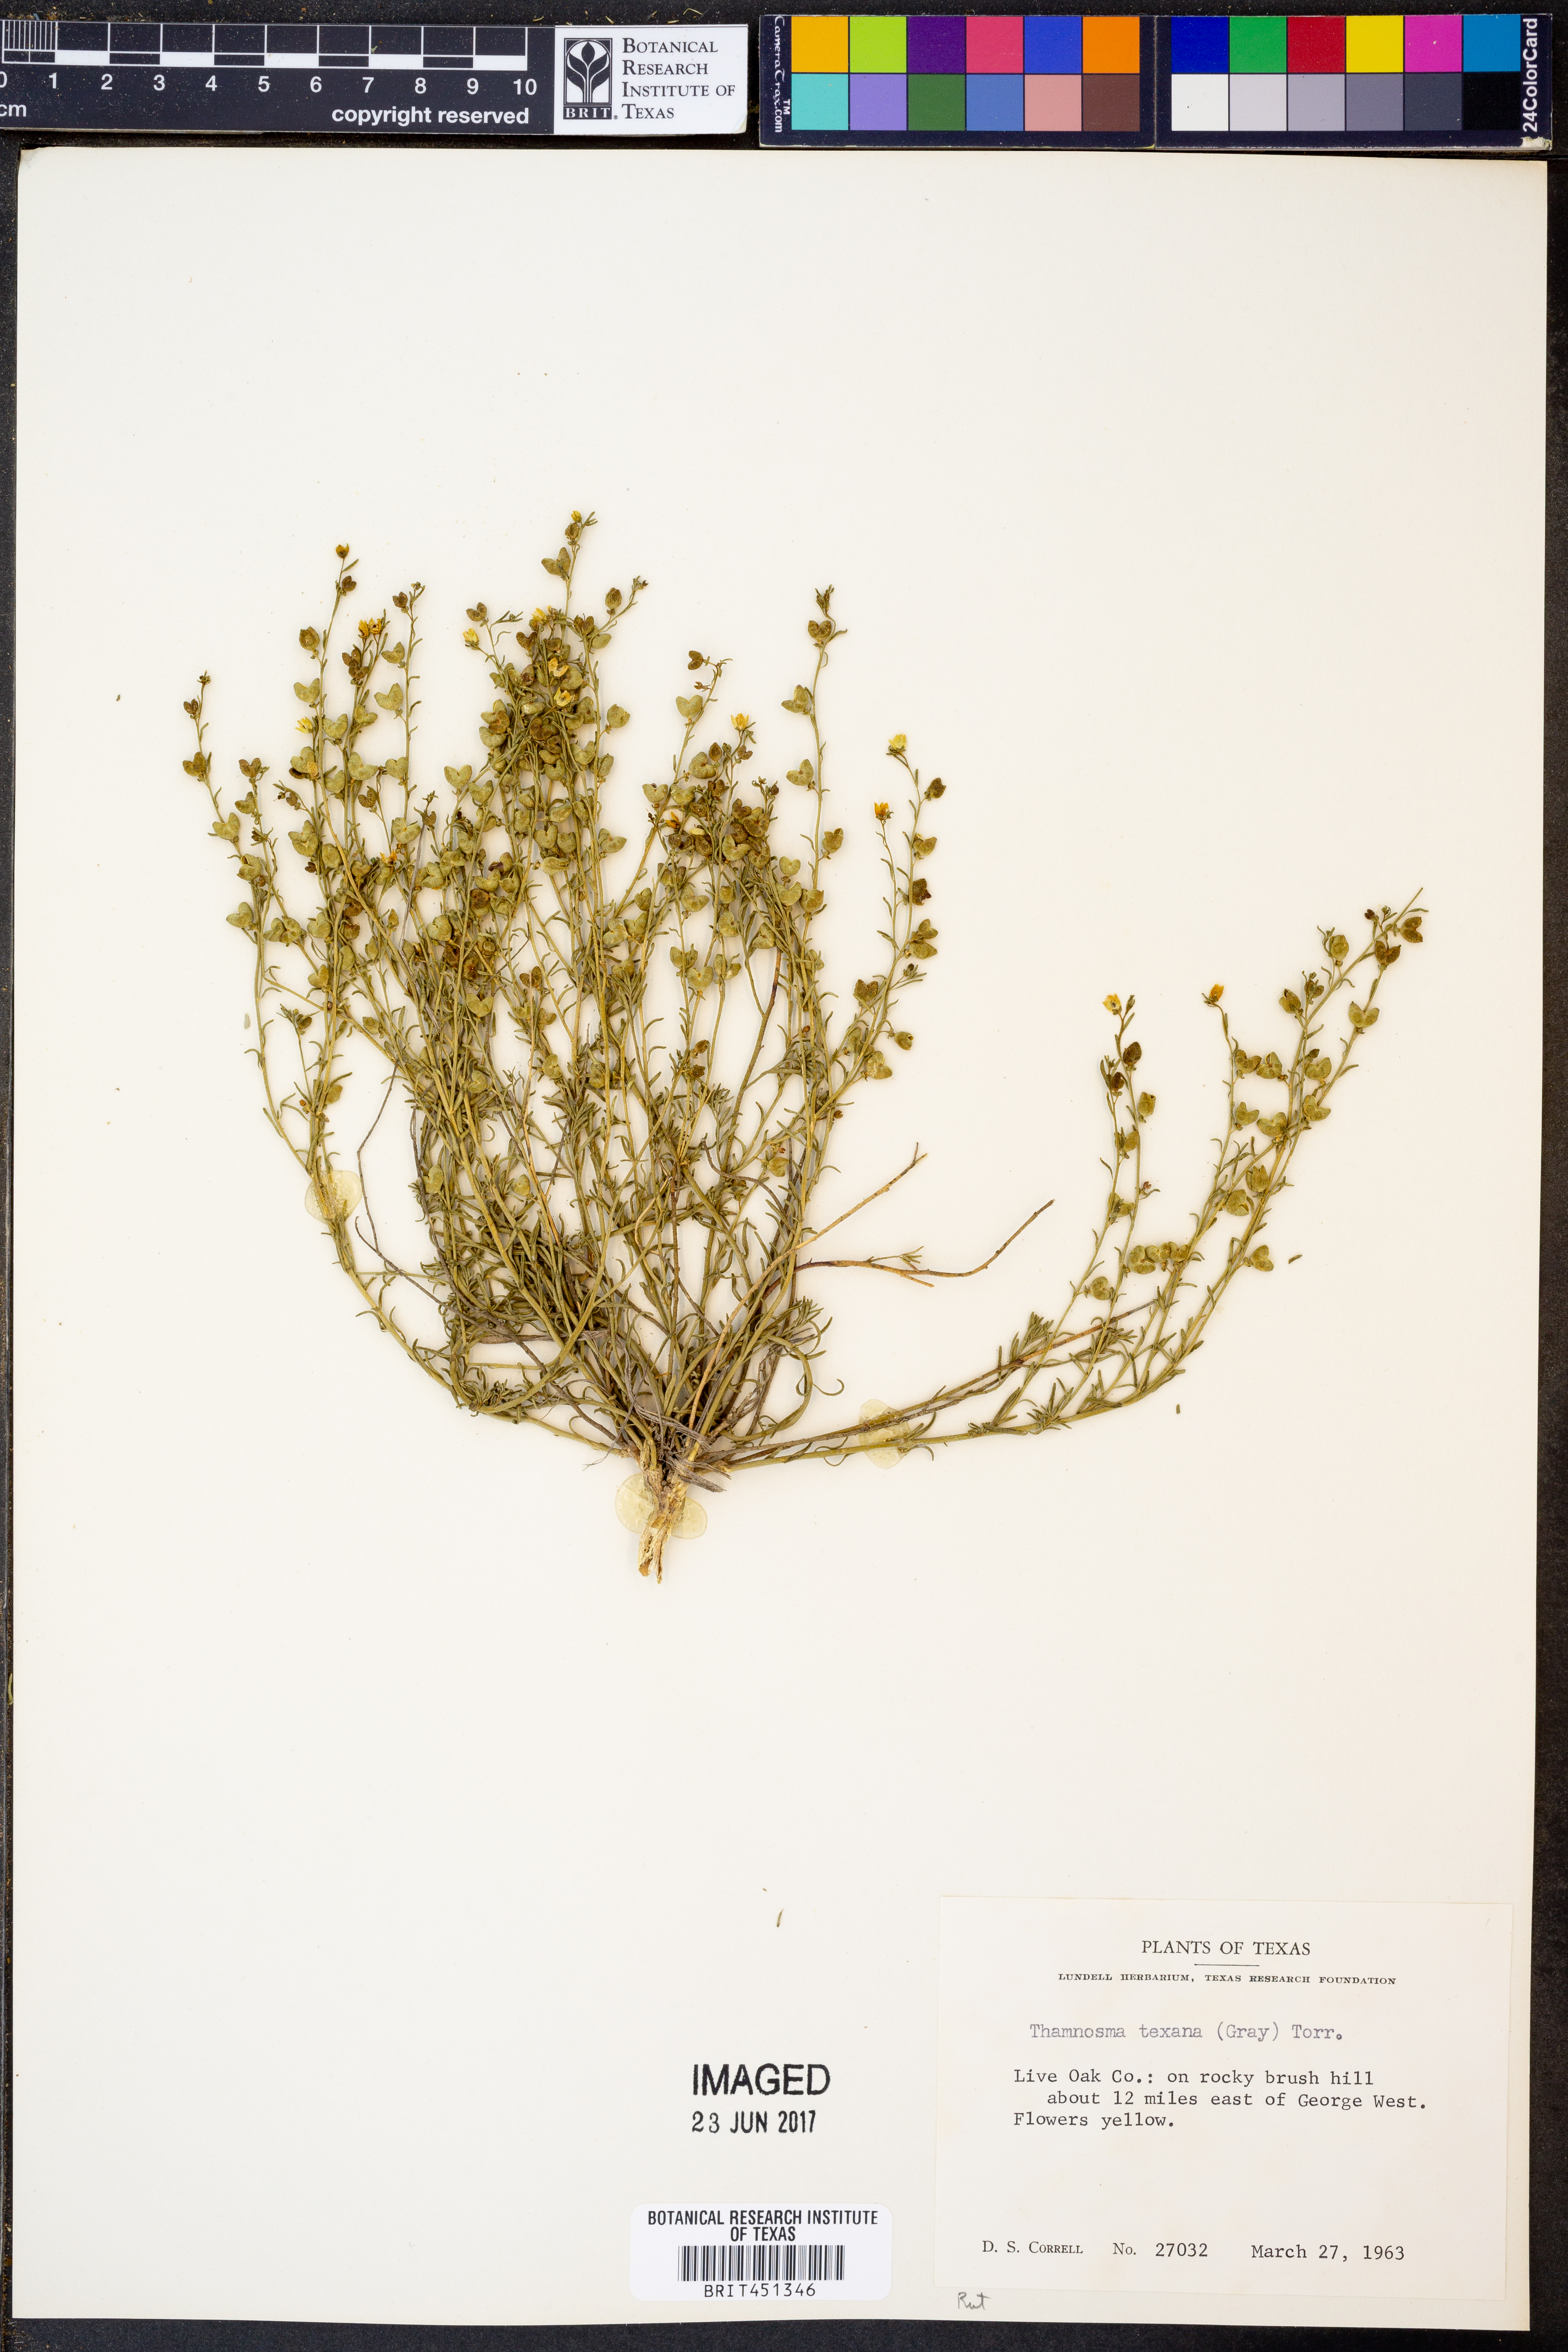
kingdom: Plantae
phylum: Tracheophyta
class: Magnoliopsida
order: Sapindales
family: Rutaceae
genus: Thamnosma
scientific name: Thamnosma texana
